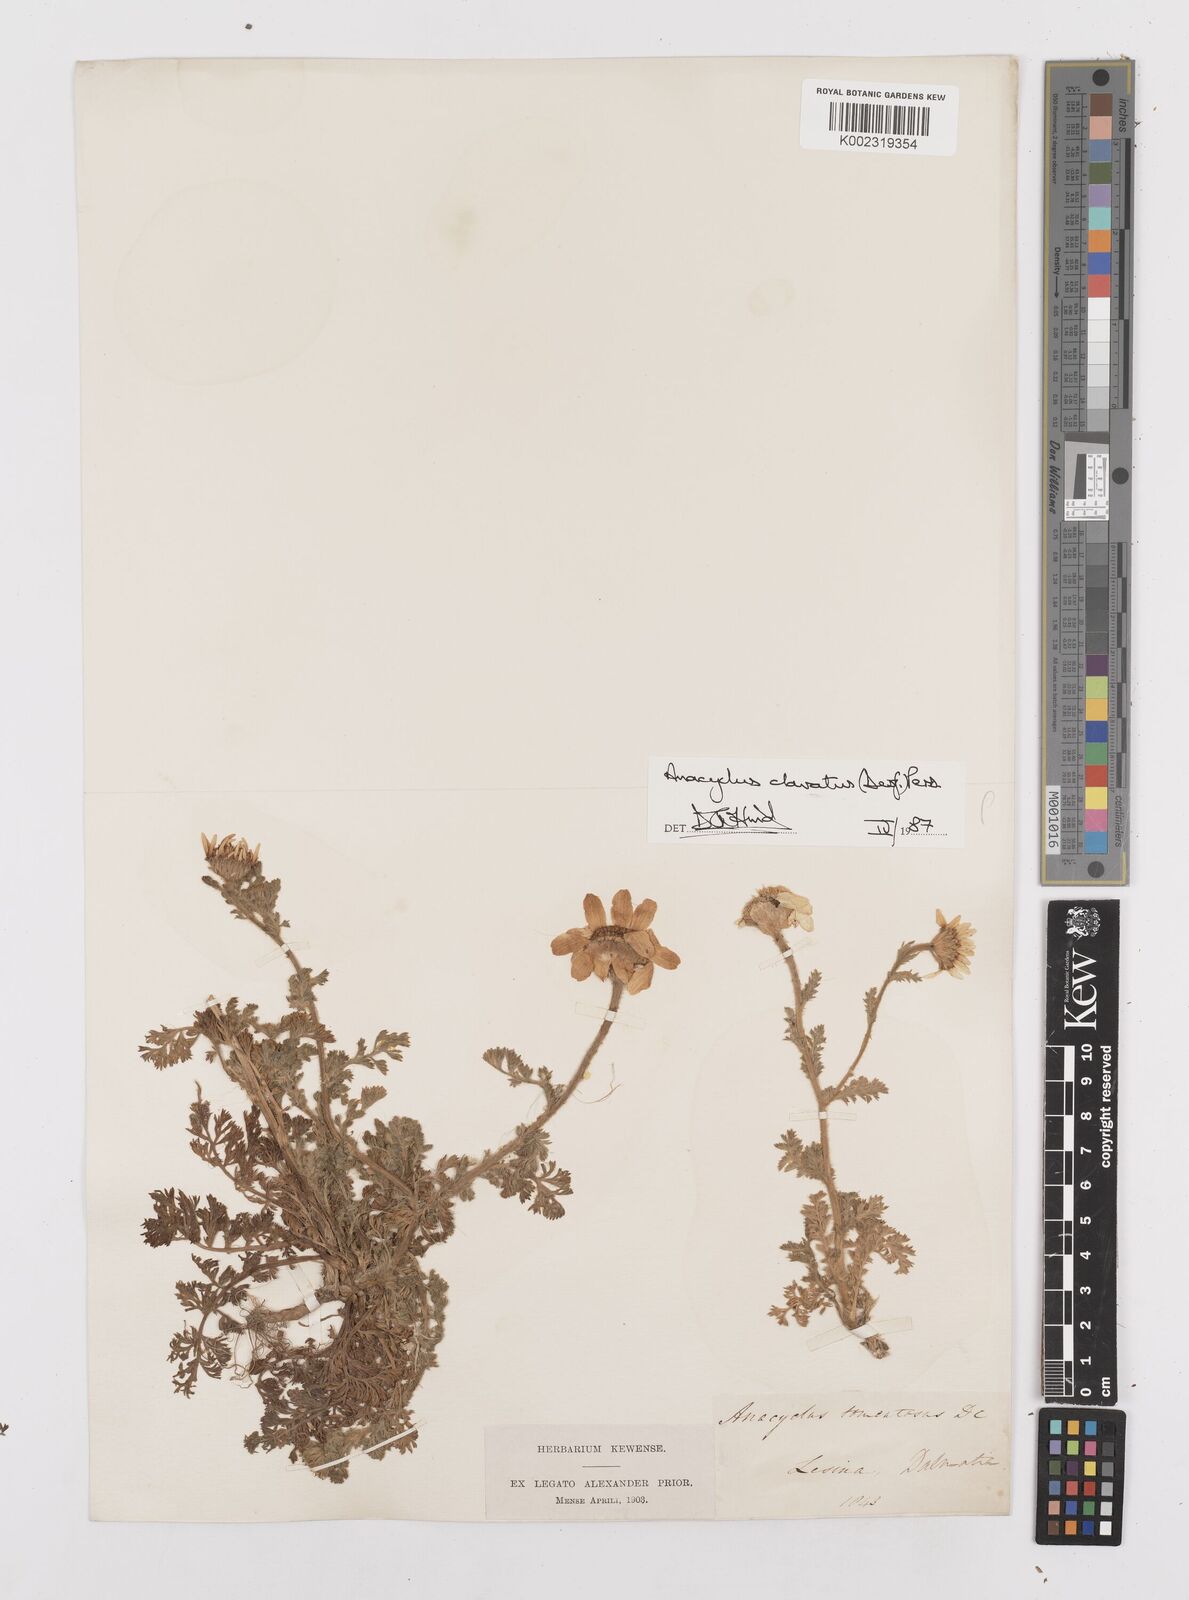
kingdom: Plantae
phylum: Tracheophyta
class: Magnoliopsida
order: Asterales
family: Asteraceae
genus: Anacyclus
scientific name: Anacyclus clavatus
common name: Whitebuttons
